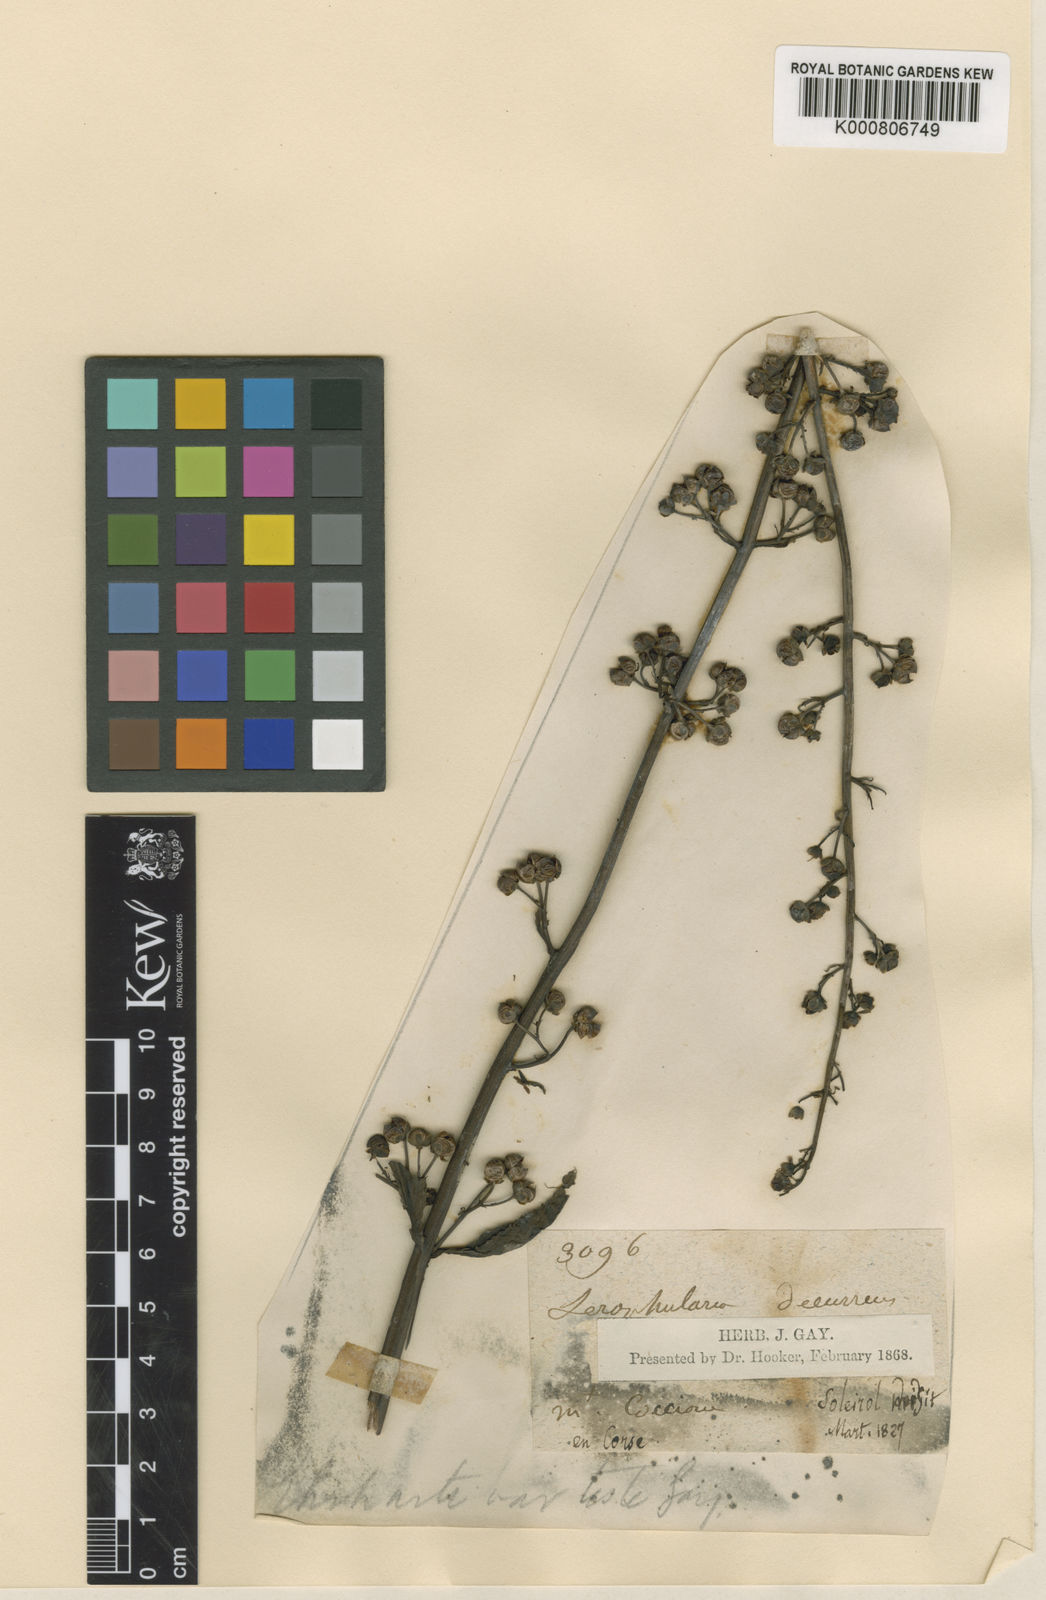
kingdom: Plantae
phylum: Tracheophyta
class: Magnoliopsida
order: Lamiales
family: Scrophulariaceae
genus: Scrophularia
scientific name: Scrophularia umbrosa
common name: Green figwort
